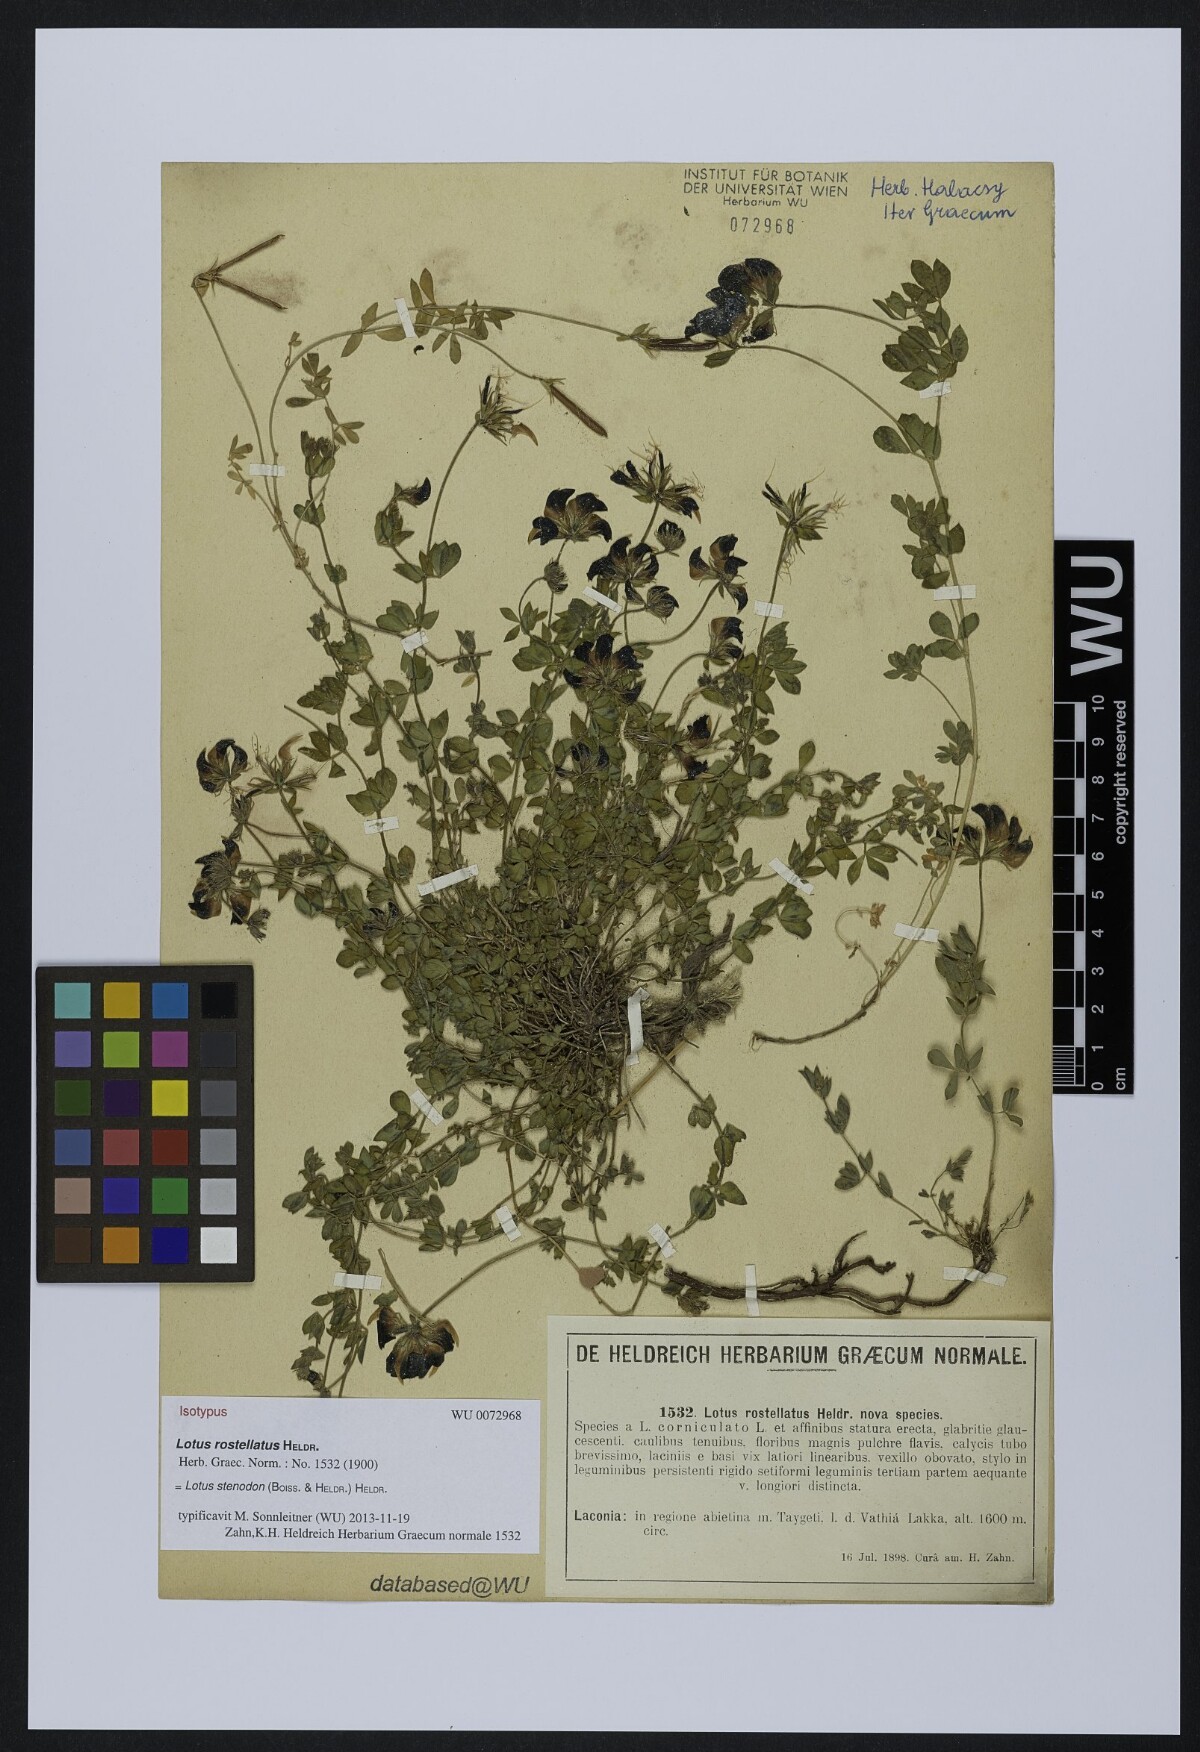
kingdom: Plantae
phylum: Tracheophyta
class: Magnoliopsida
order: Fabales
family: Fabaceae
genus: Lotus
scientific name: Lotus corniculatus
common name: Common bird's-foot-trefoil
